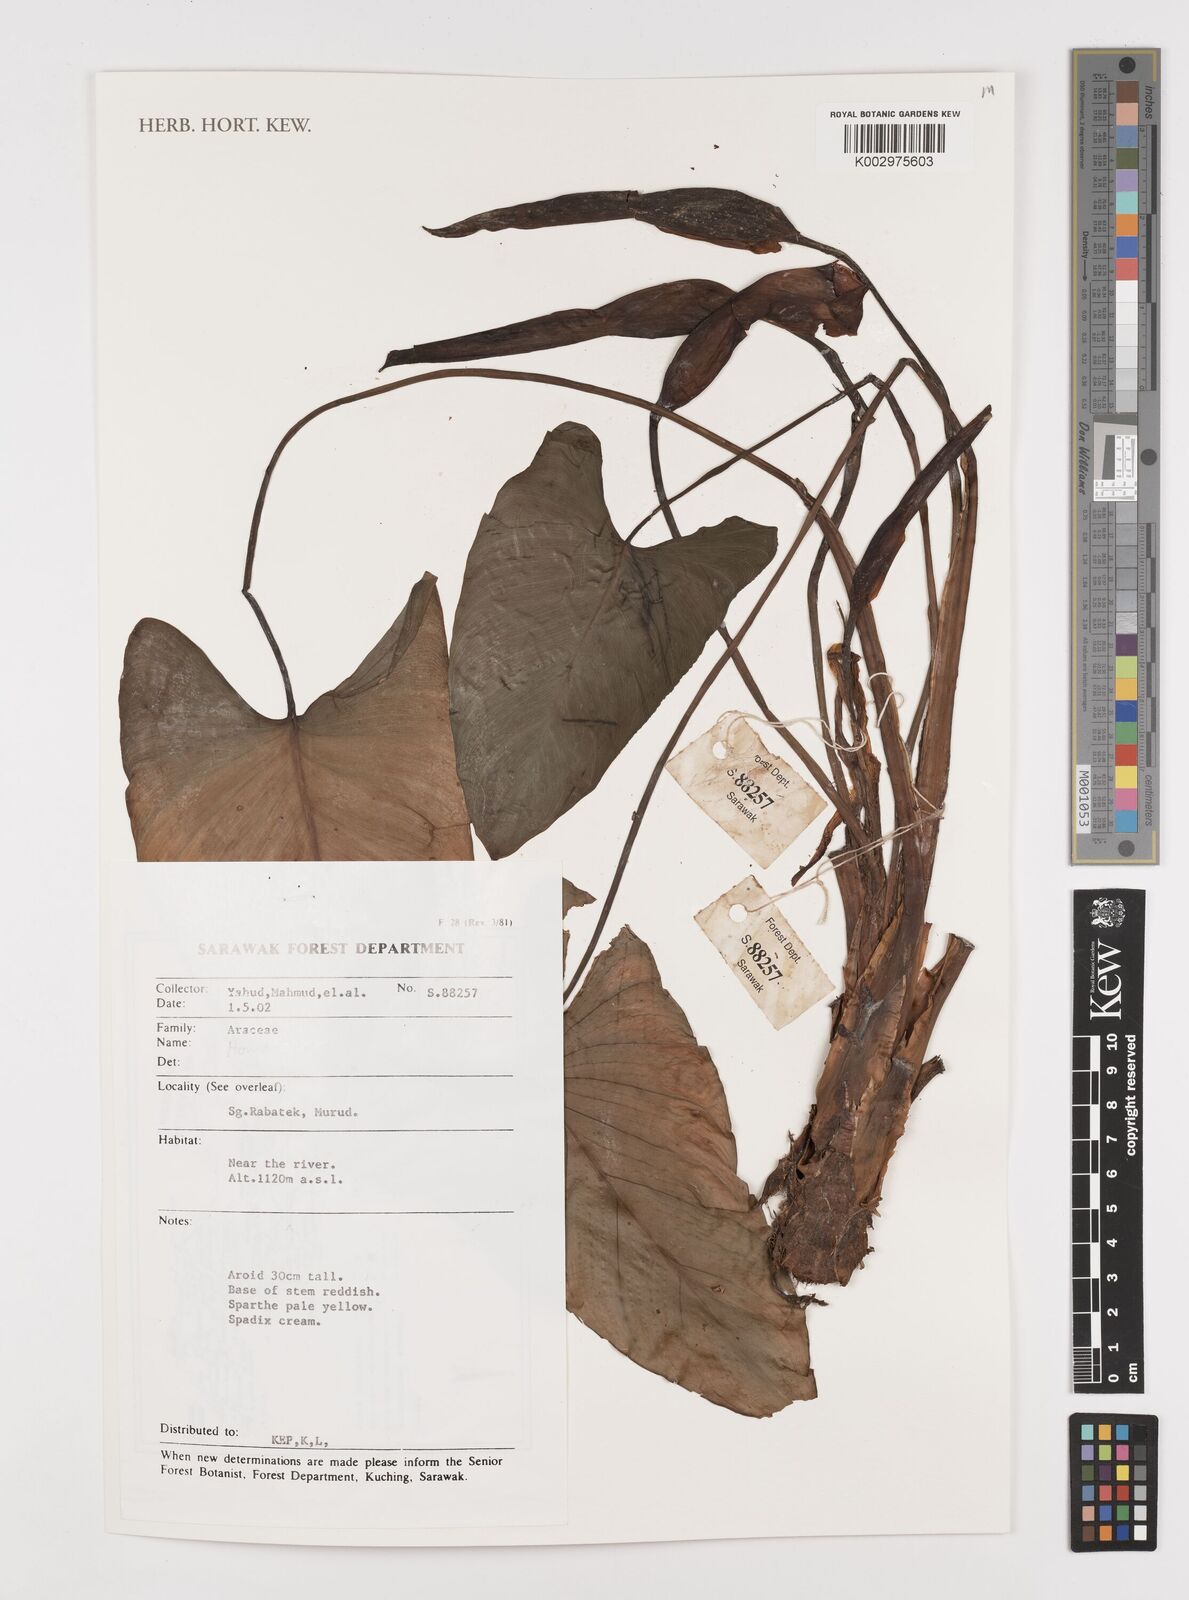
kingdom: Plantae
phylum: Tracheophyta
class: Liliopsida
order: Alismatales
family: Araceae
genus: Homalomena
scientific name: Homalomena
